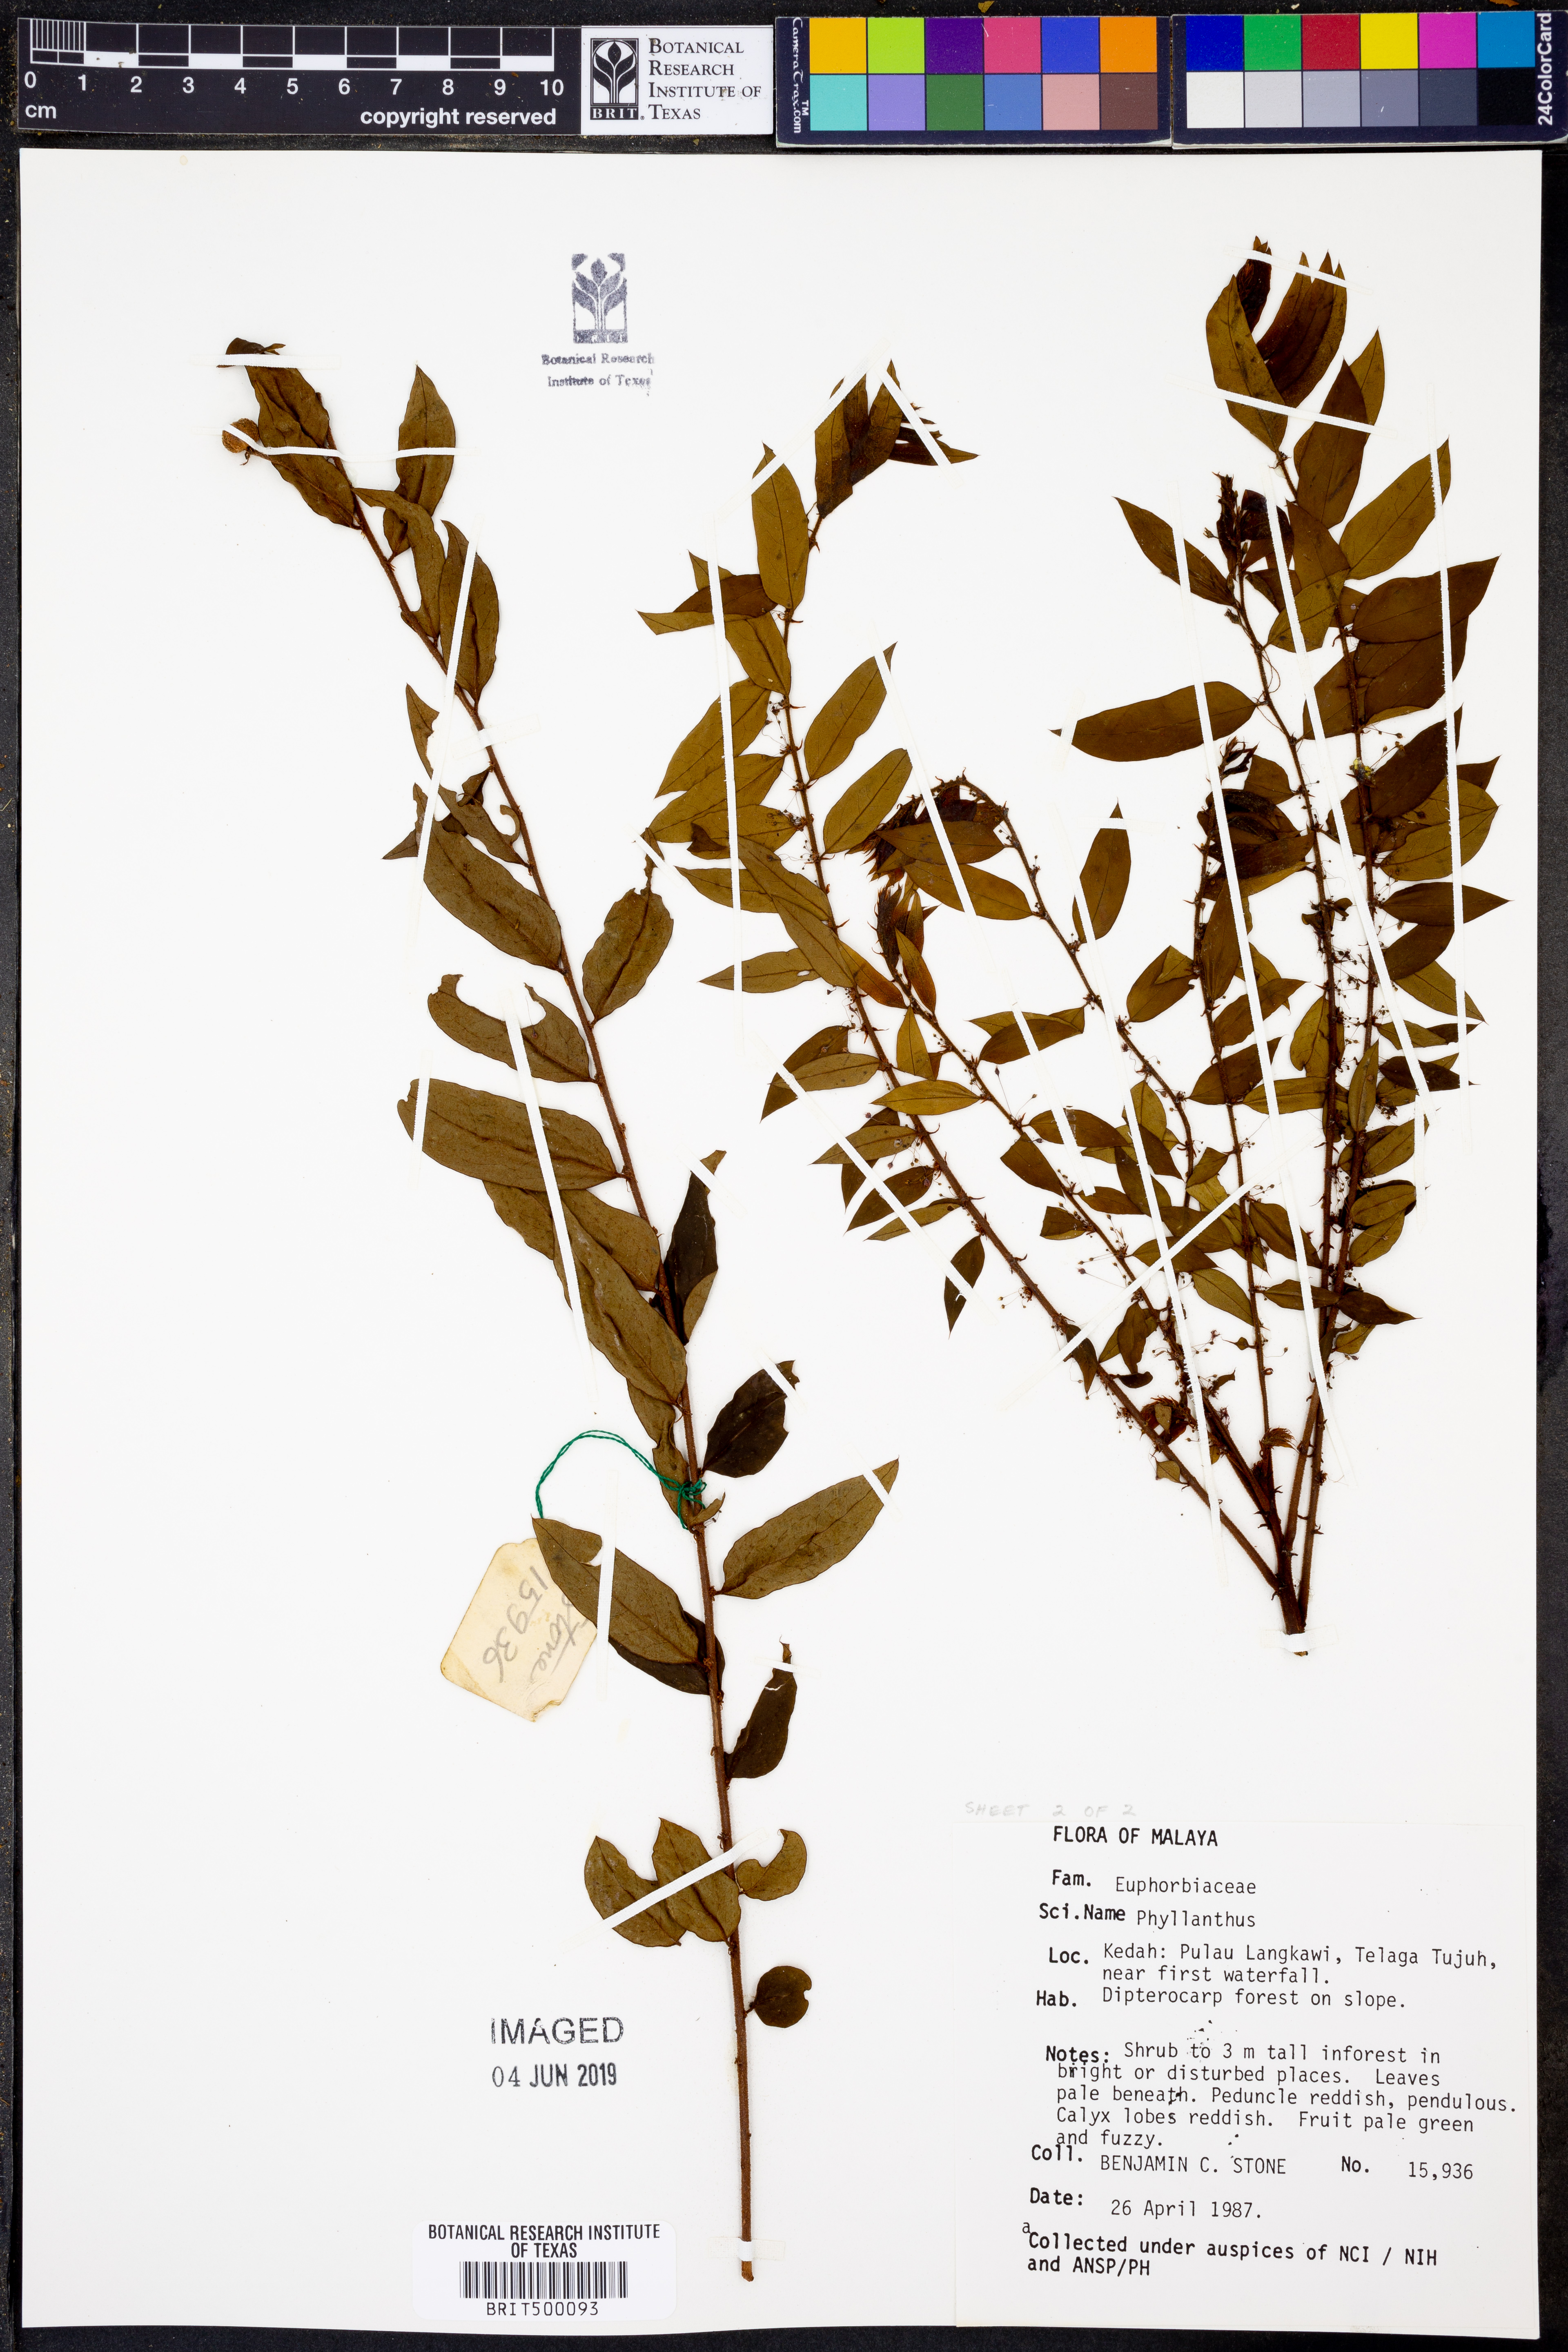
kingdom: Plantae
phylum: Tracheophyta
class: Magnoliopsida
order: Malpighiales
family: Phyllanthaceae
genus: Phyllanthus
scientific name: Phyllanthus
